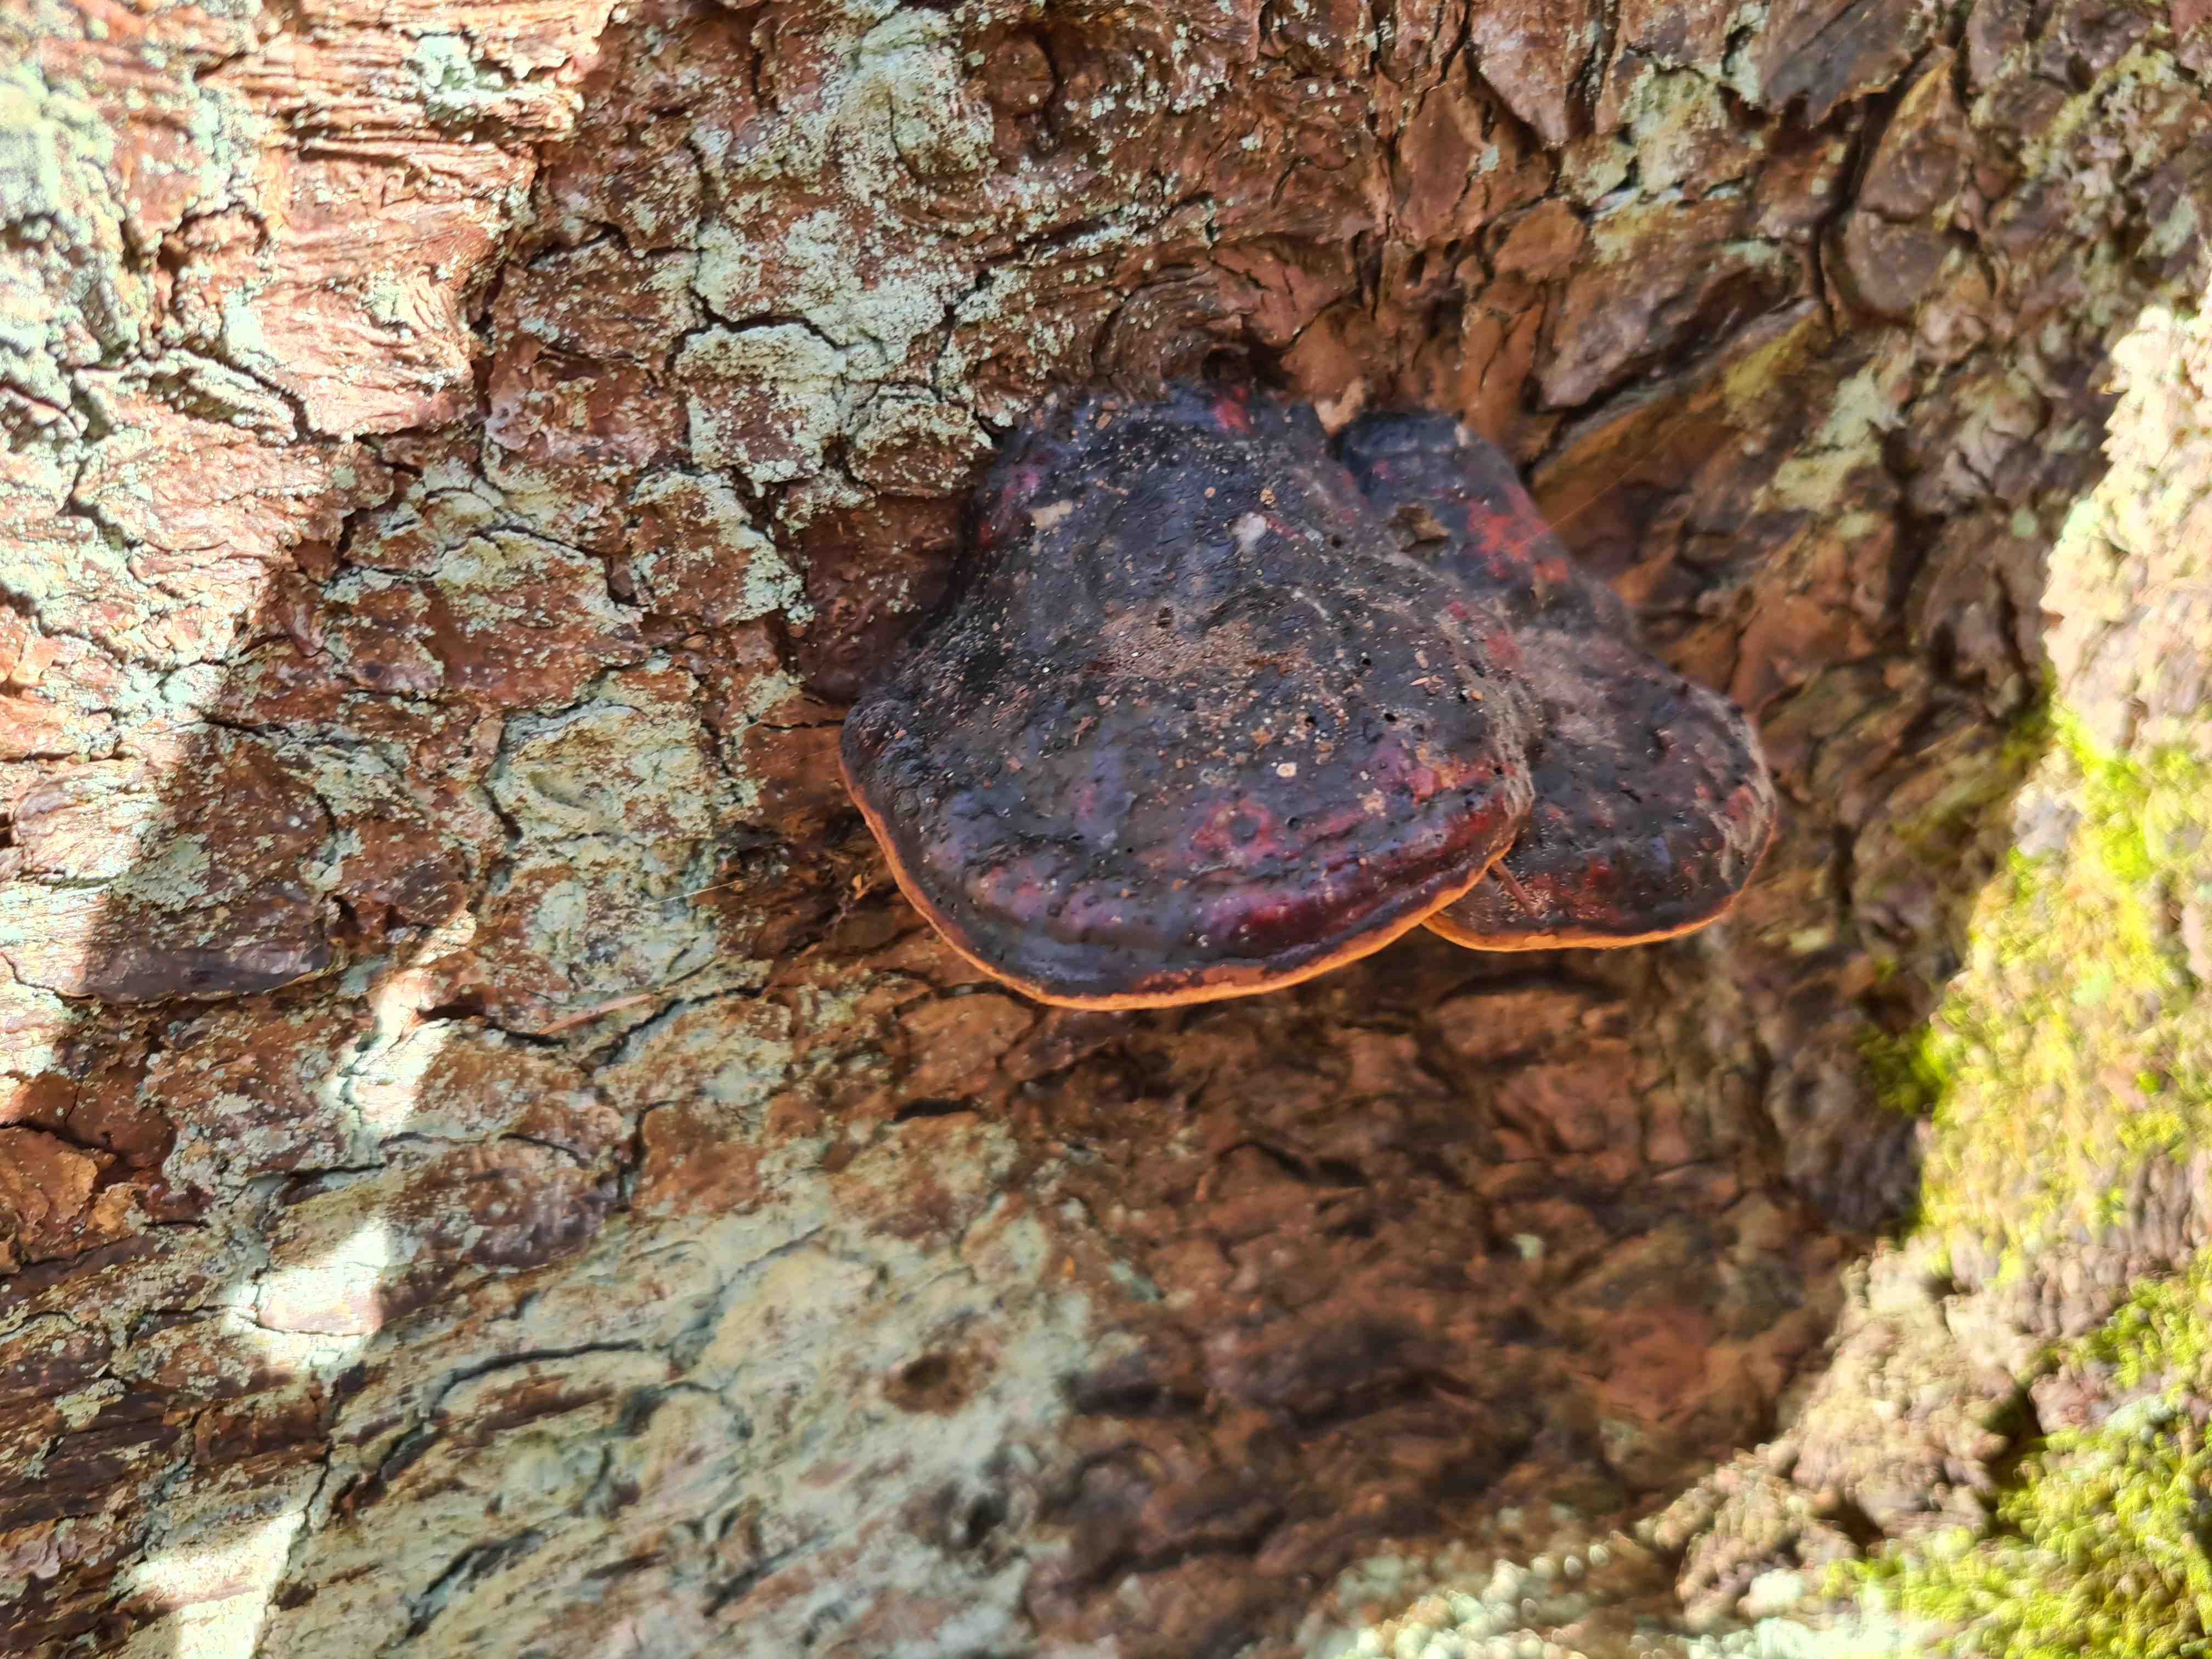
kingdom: Fungi
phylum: Basidiomycota
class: Agaricomycetes
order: Polyporales
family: Fomitopsidaceae
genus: Fomitopsis
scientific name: Fomitopsis pinicola
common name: randbæltet hovporesvamp
